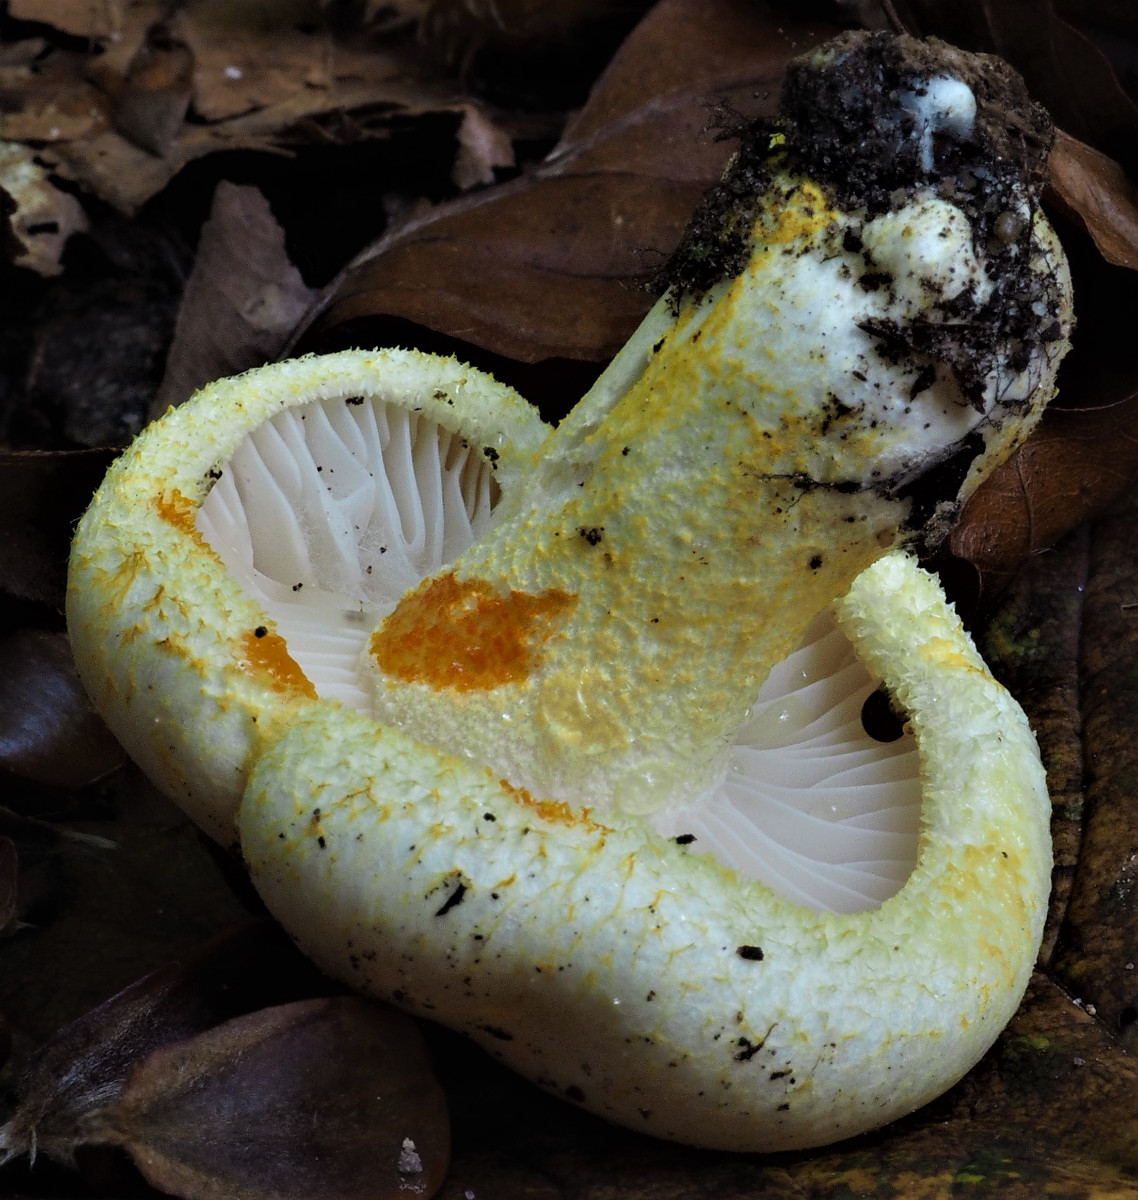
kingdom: Fungi
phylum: Basidiomycota
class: Agaricomycetes
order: Agaricales
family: Hygrophoraceae
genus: Hygrophorus
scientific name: Hygrophorus chrysodon
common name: gulfnugget sneglehat
